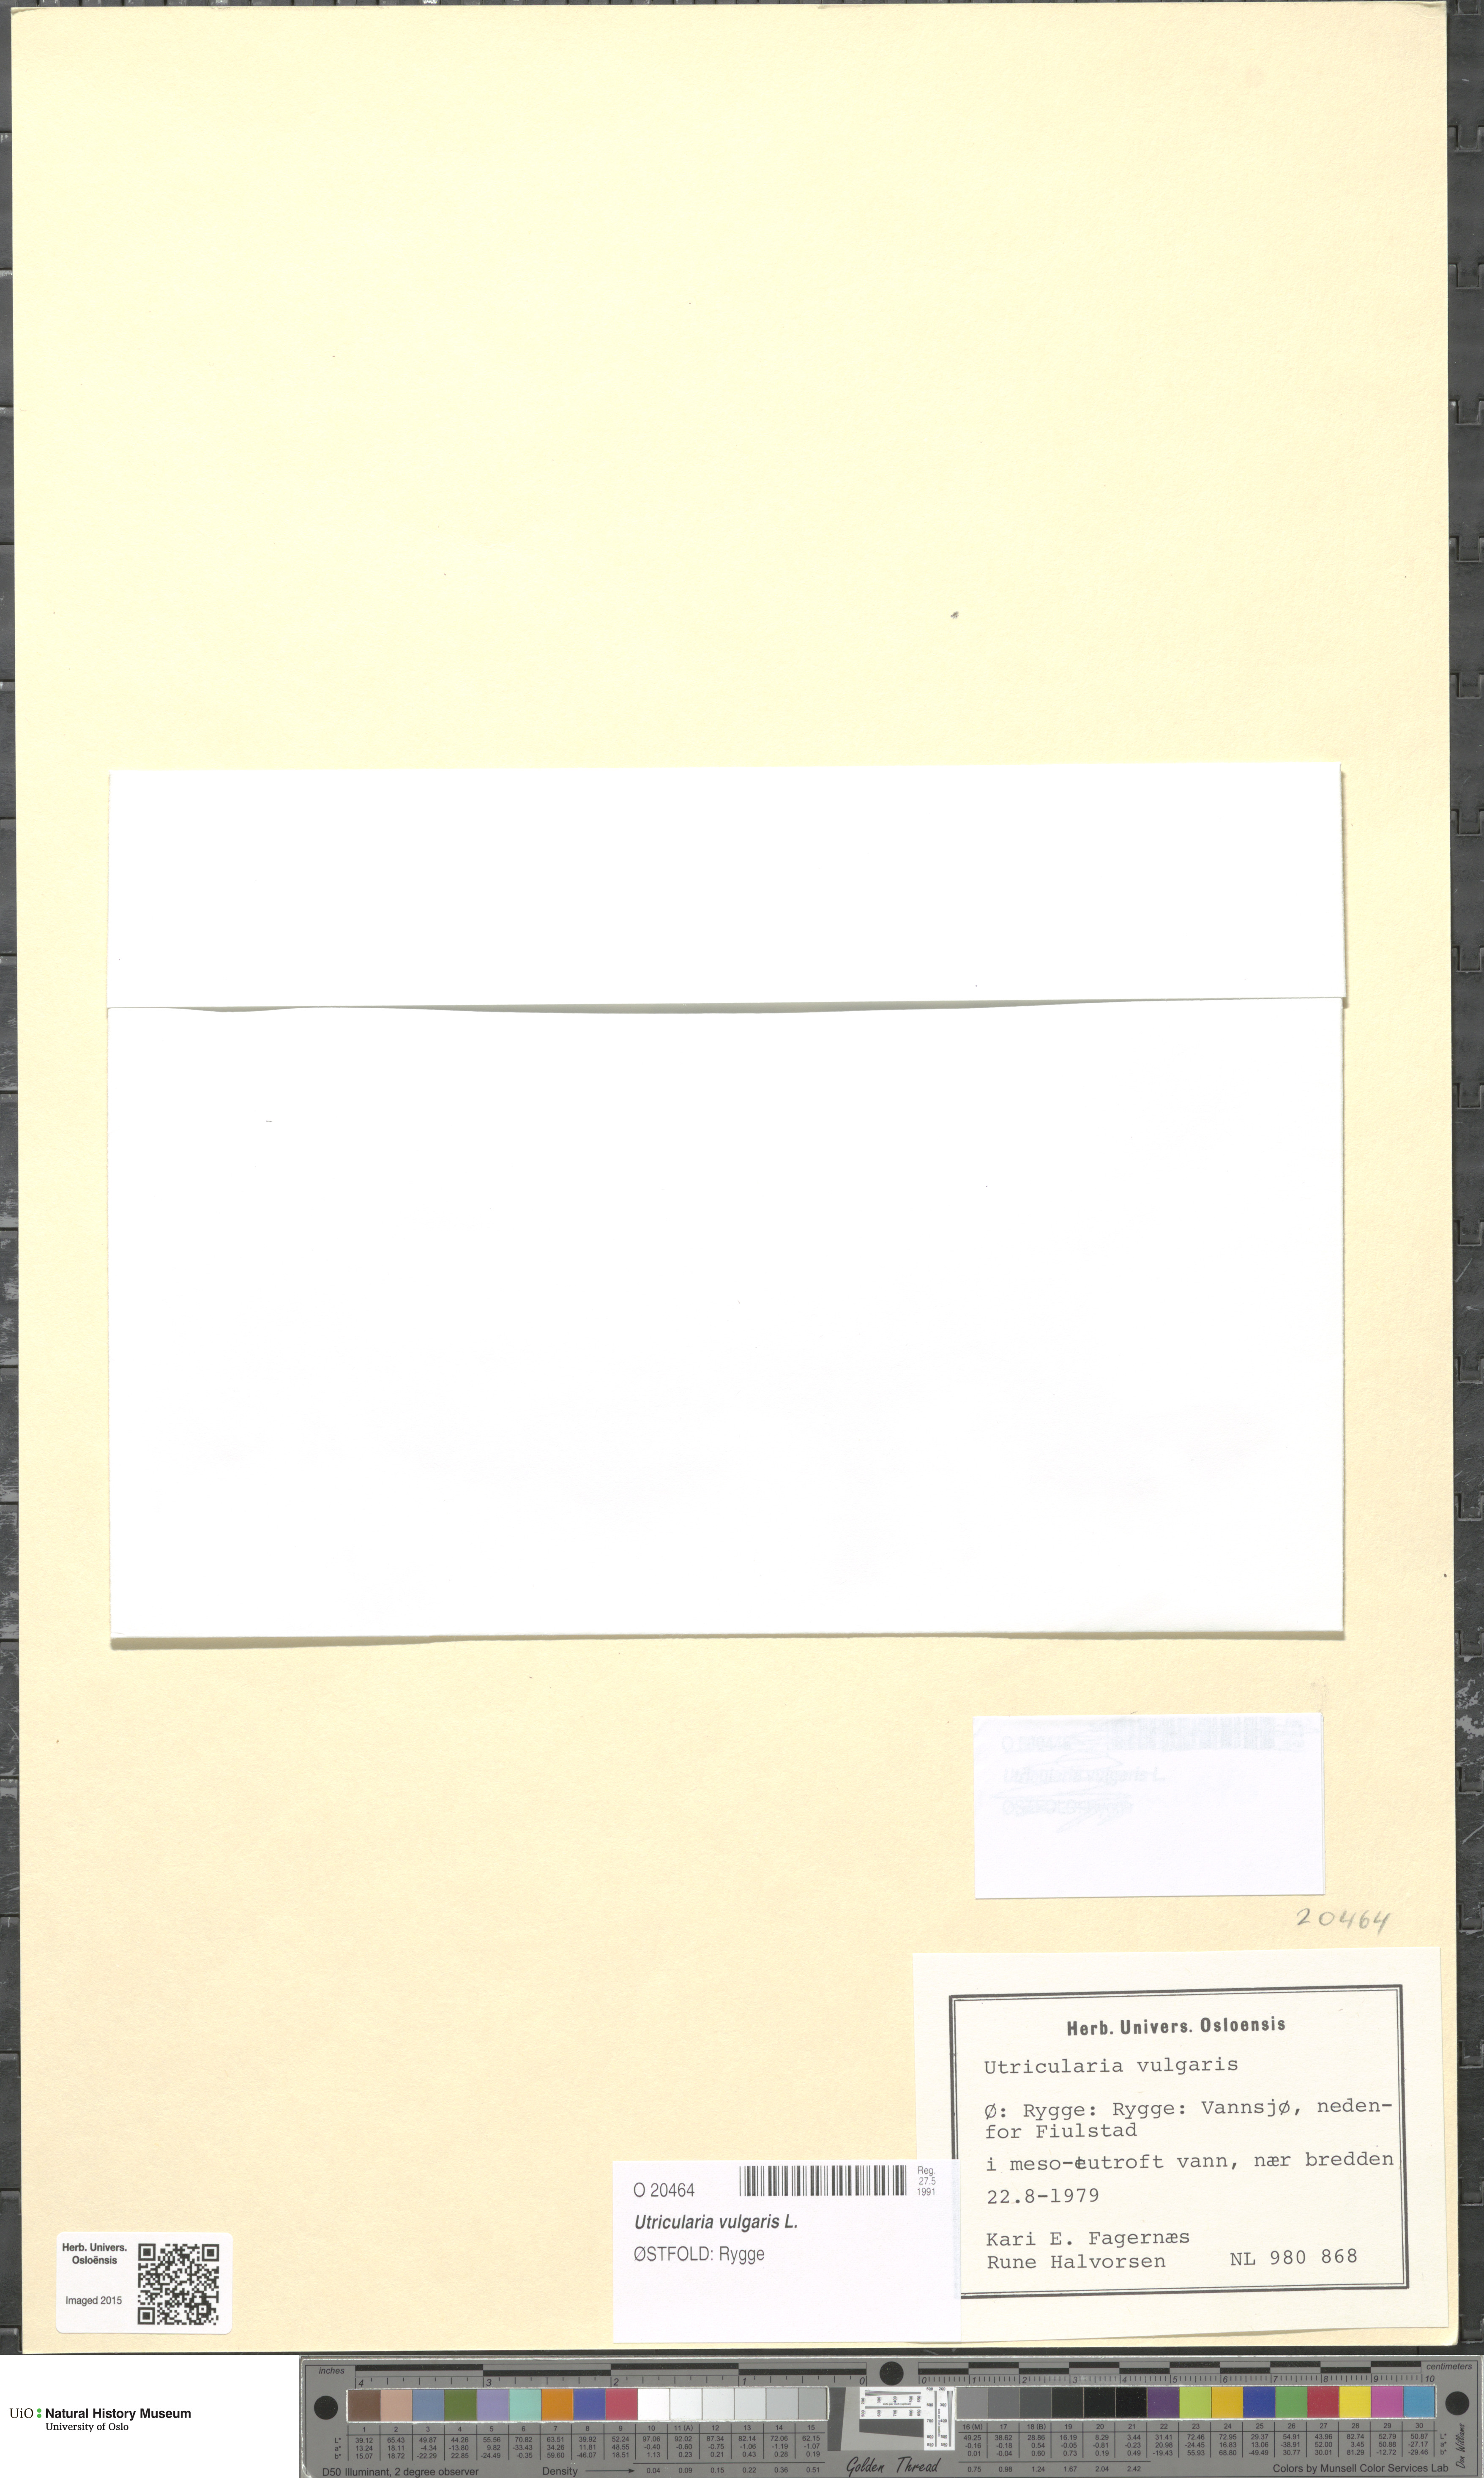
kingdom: Plantae
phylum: Tracheophyta
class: Magnoliopsida
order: Lamiales
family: Lentibulariaceae
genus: Utricularia
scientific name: Utricularia vulgaris
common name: Greater bladderwort
